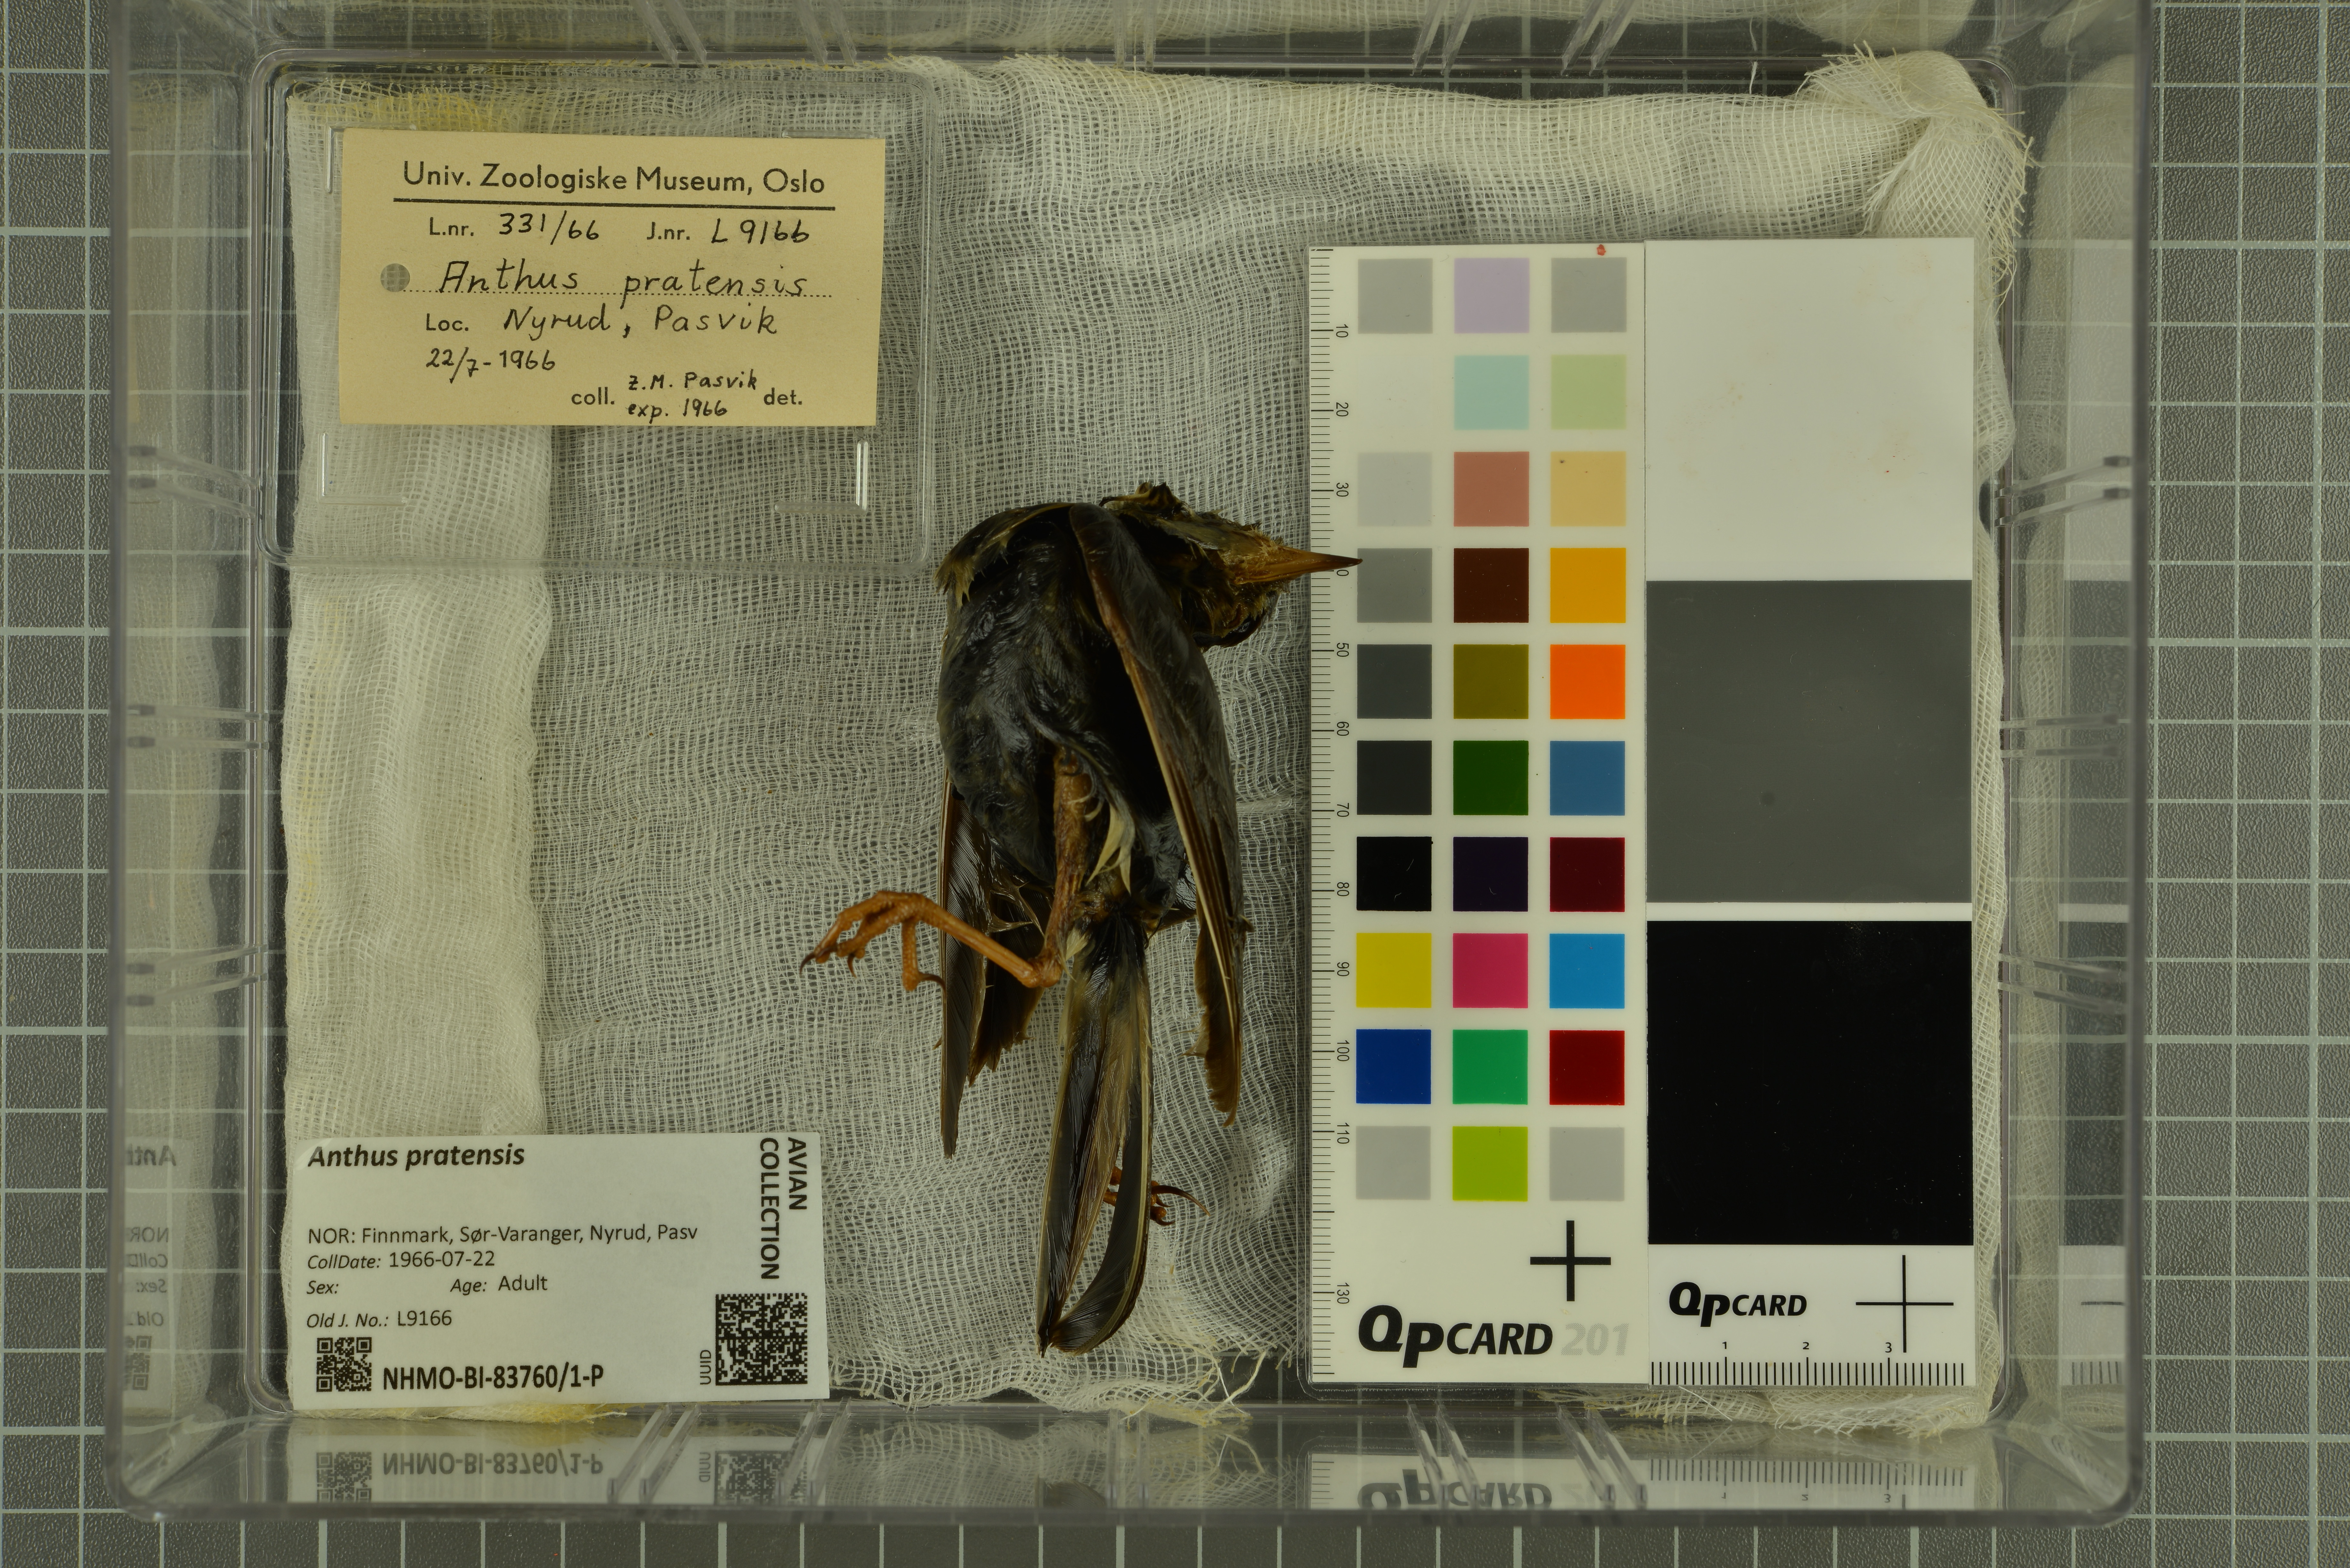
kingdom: Animalia
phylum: Chordata
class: Aves
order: Passeriformes
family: Motacillidae
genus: Anthus
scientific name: Anthus pratensis
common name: Meadow pipit
